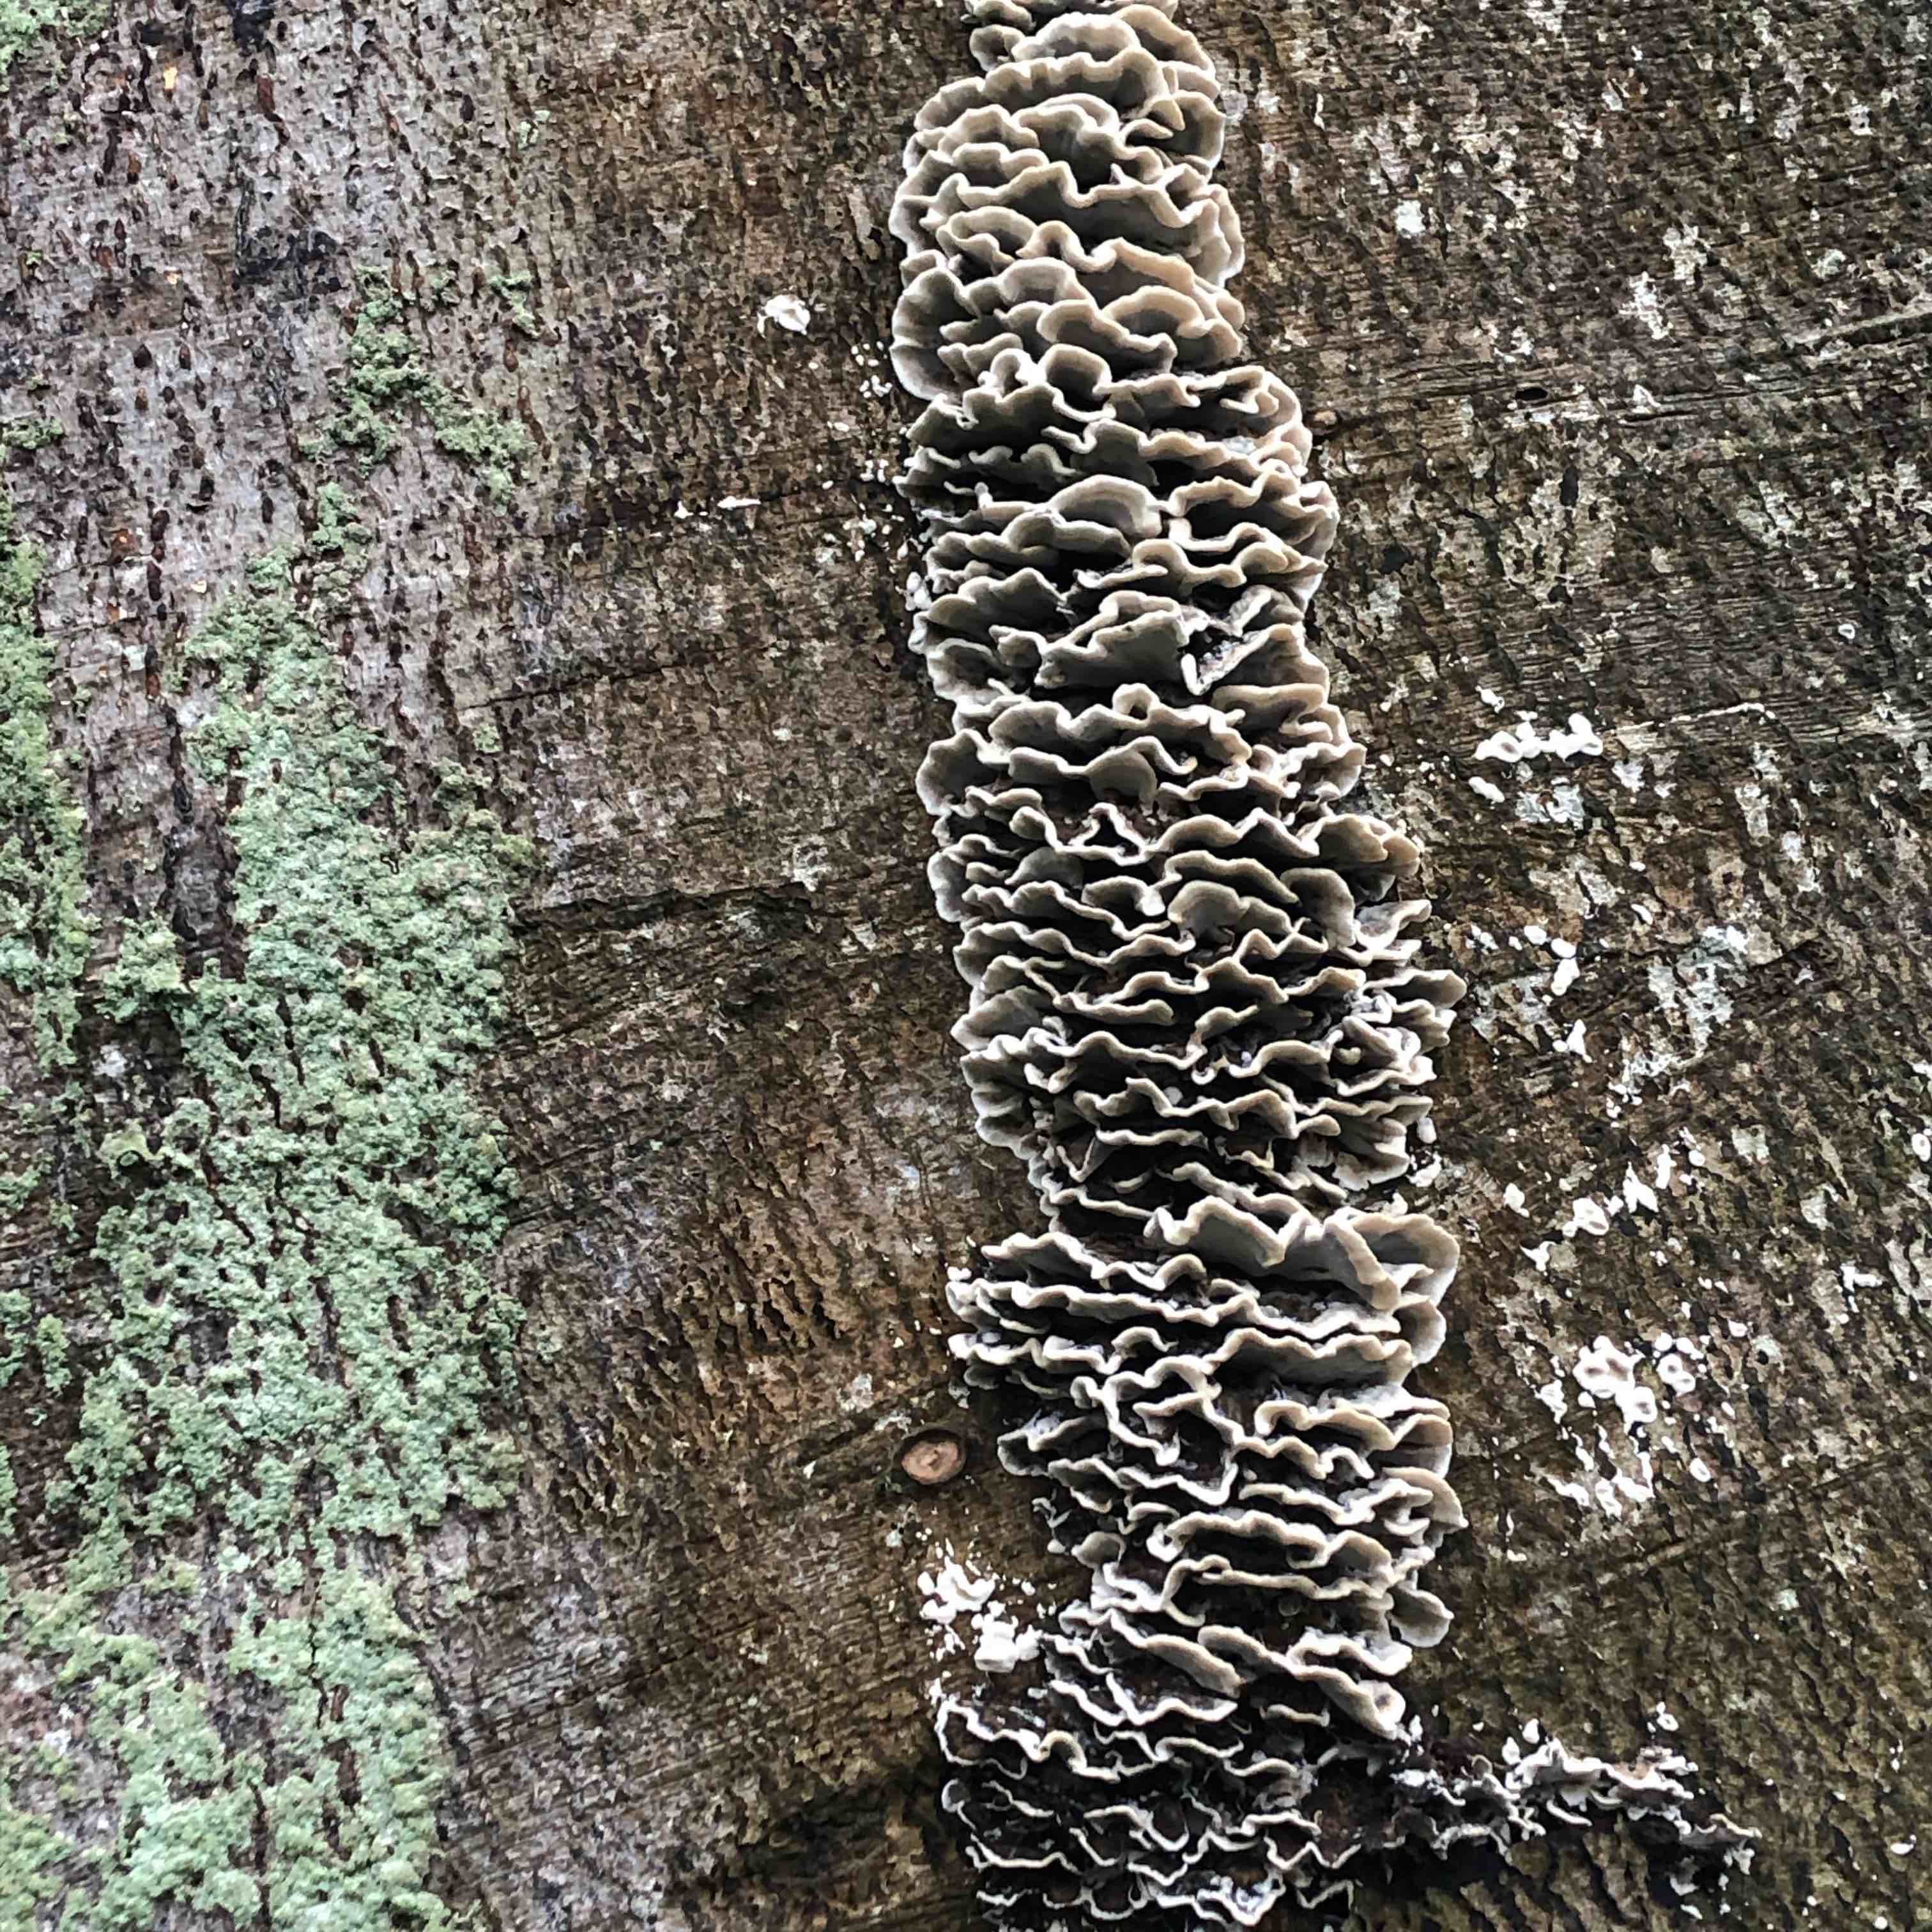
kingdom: Fungi
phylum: Basidiomycota
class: Agaricomycetes
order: Polyporales
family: Phanerochaetaceae
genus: Bjerkandera
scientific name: Bjerkandera adusta
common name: sveden sodporesvamp
